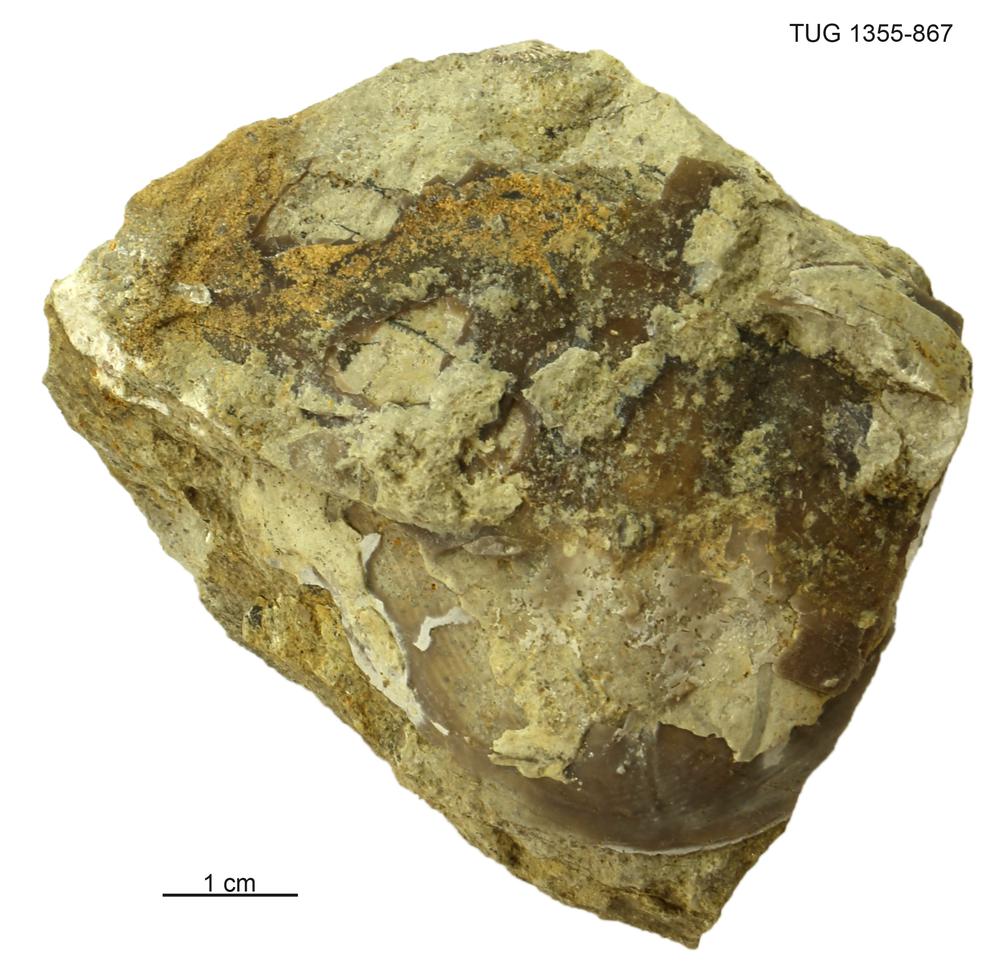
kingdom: Animalia
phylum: Arthropoda
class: Trilobita
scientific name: Trilobita
